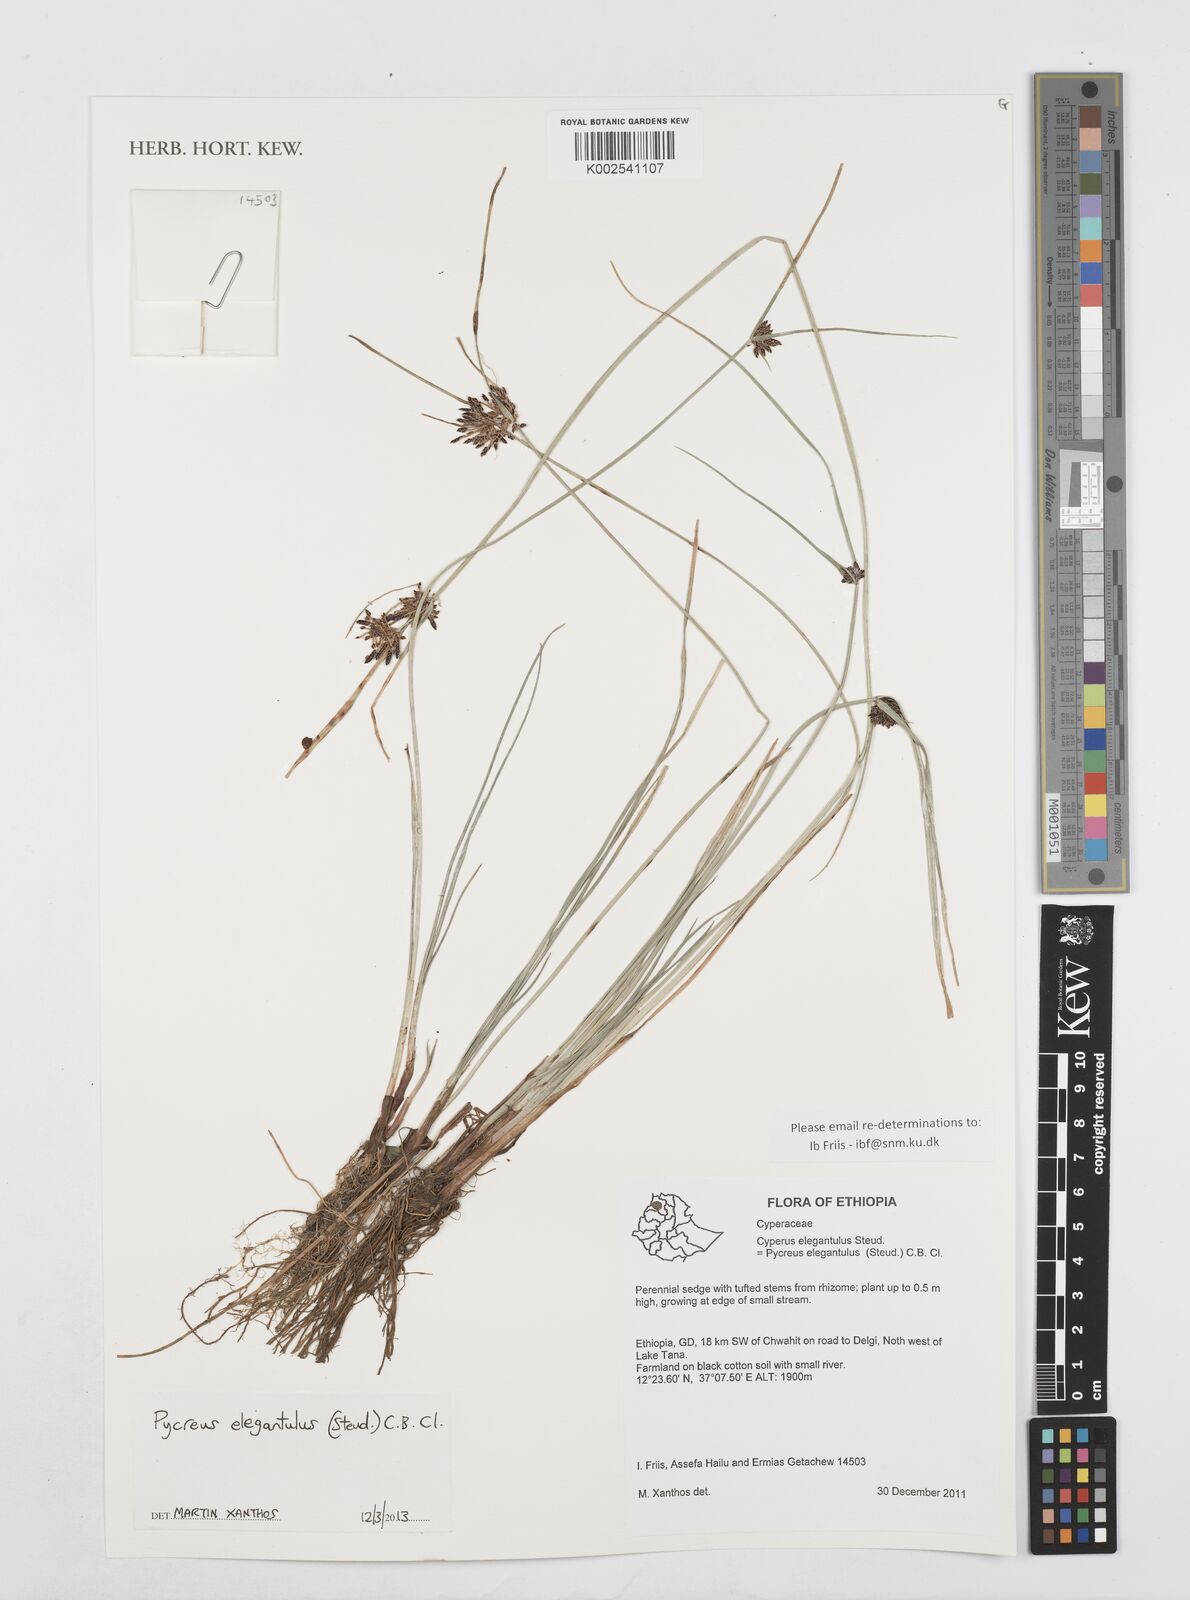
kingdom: Plantae
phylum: Tracheophyta
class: Liliopsida
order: Poales
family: Cyperaceae
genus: Cyperus
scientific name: Cyperus elegantulus
